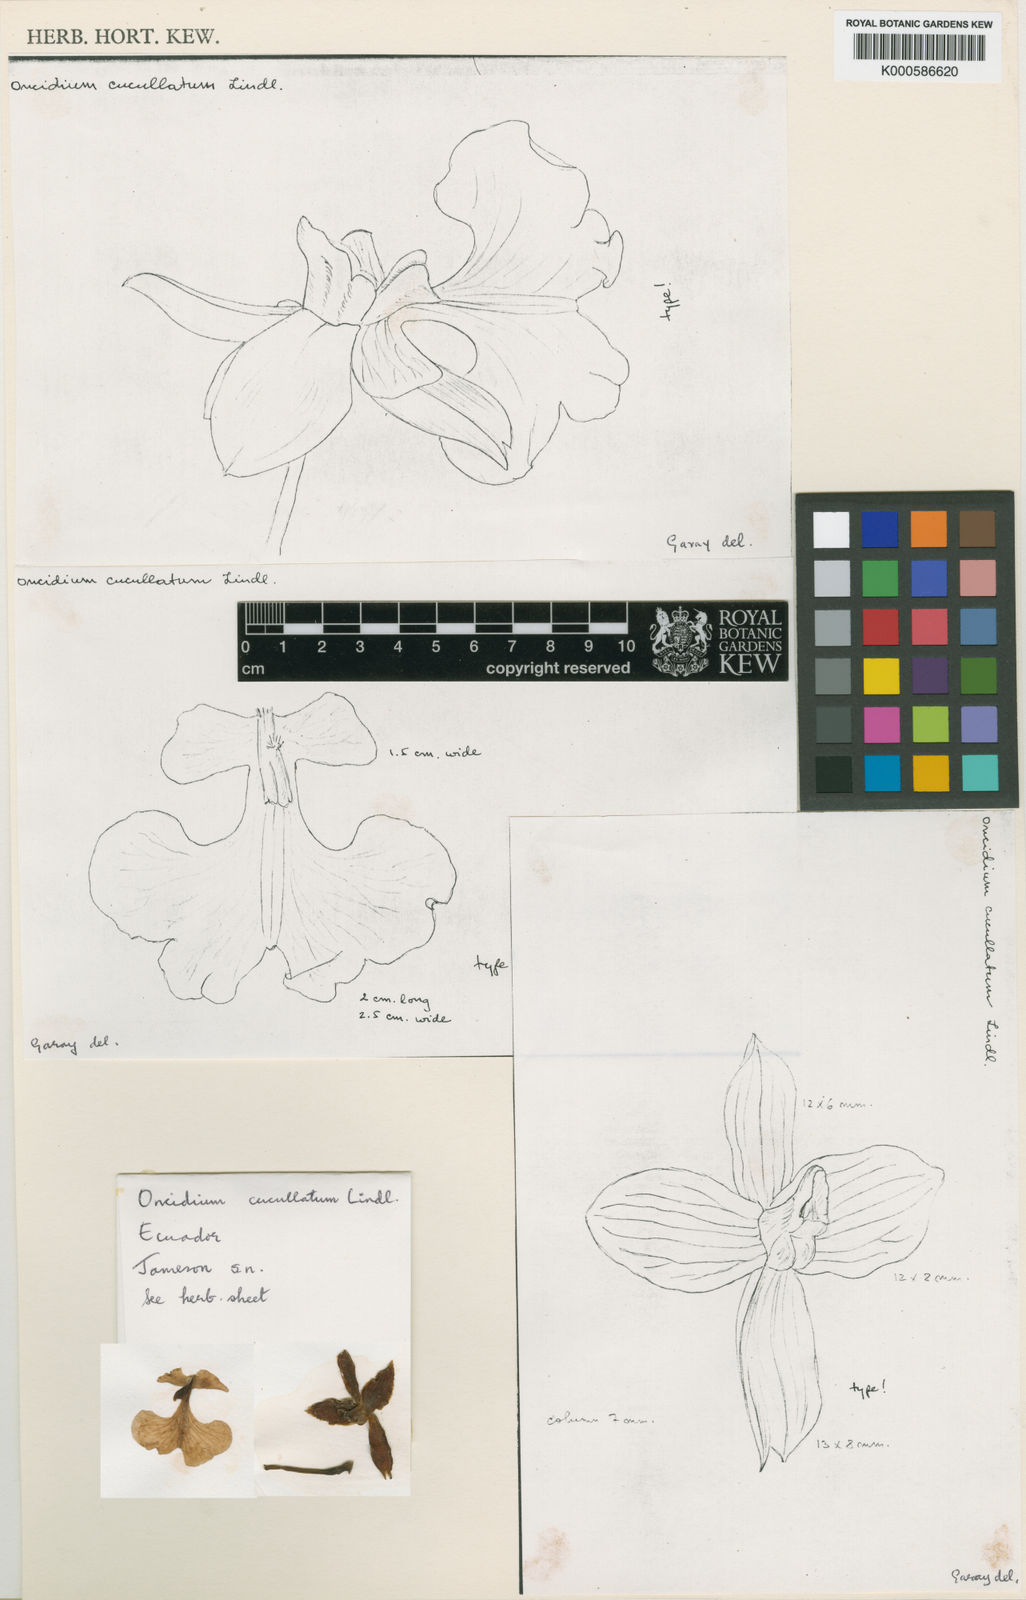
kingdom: Plantae
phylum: Tracheophyta
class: Liliopsida
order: Asparagales
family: Orchidaceae
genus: Caucaea
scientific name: Caucaea olivacea
